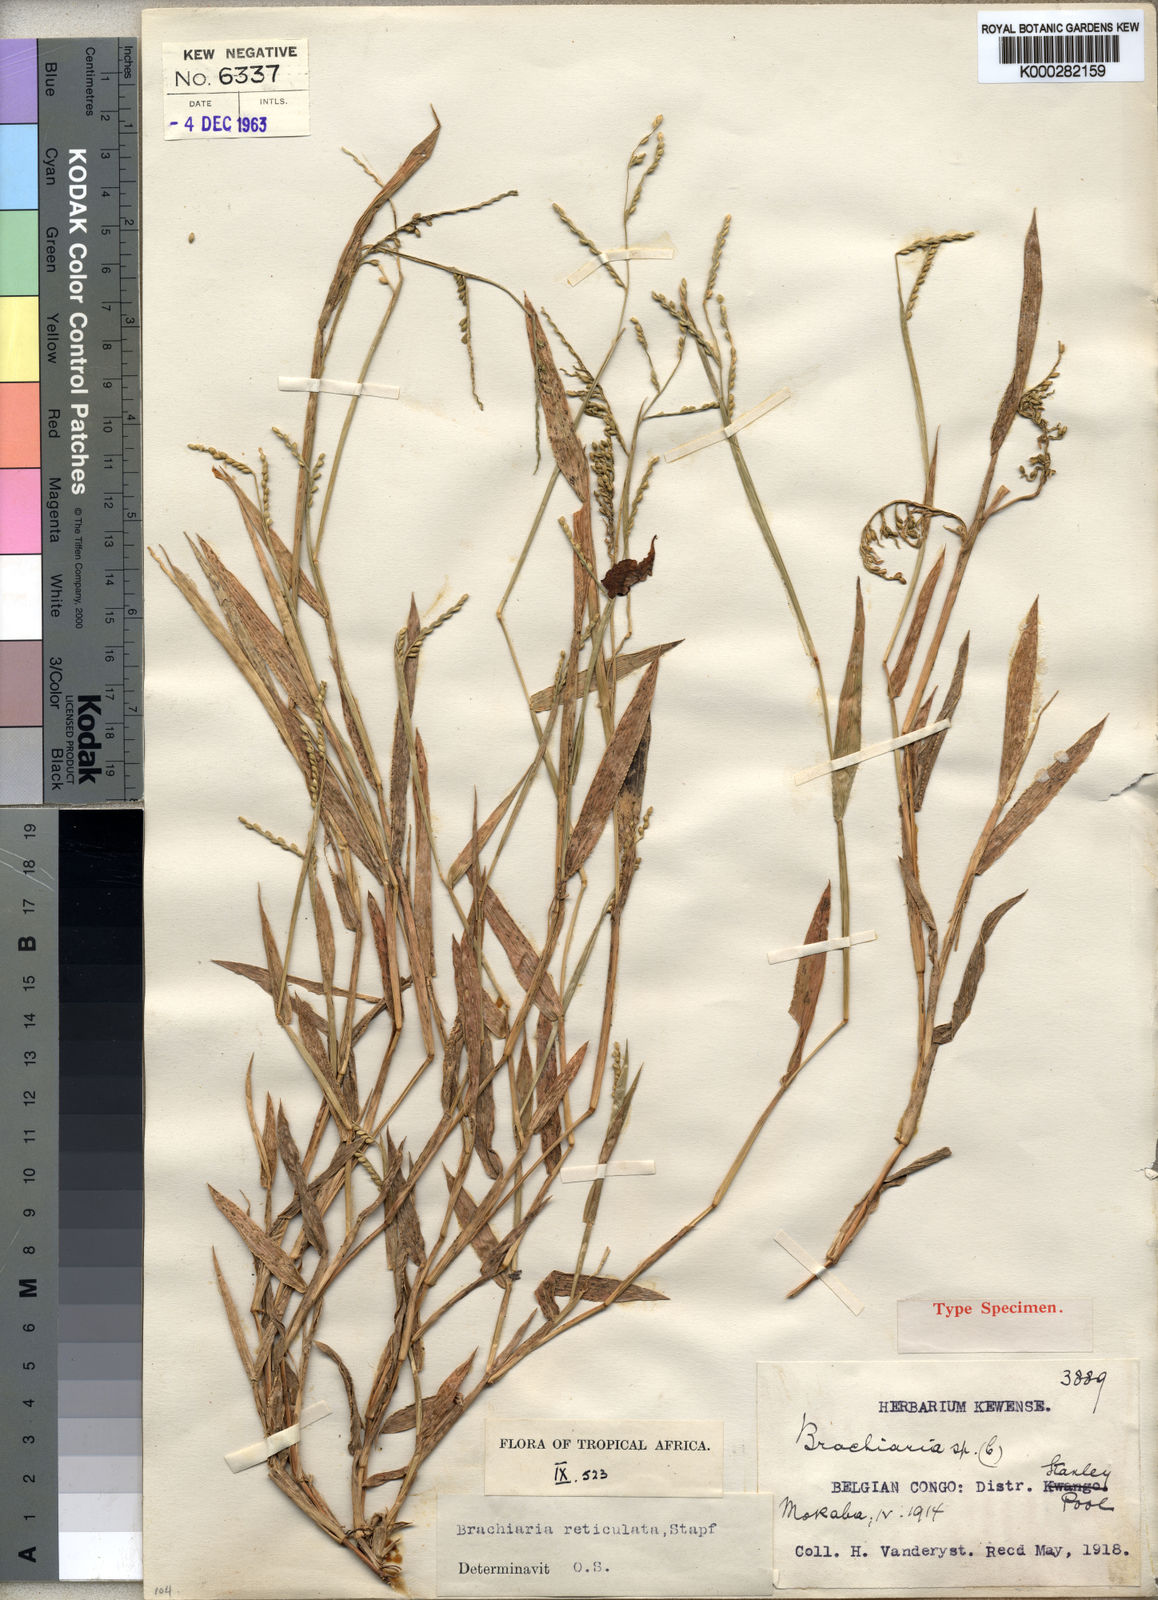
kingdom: Plantae
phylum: Tracheophyta
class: Liliopsida
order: Poales
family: Poaceae
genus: Urochloa
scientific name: Urochloa reticulata
